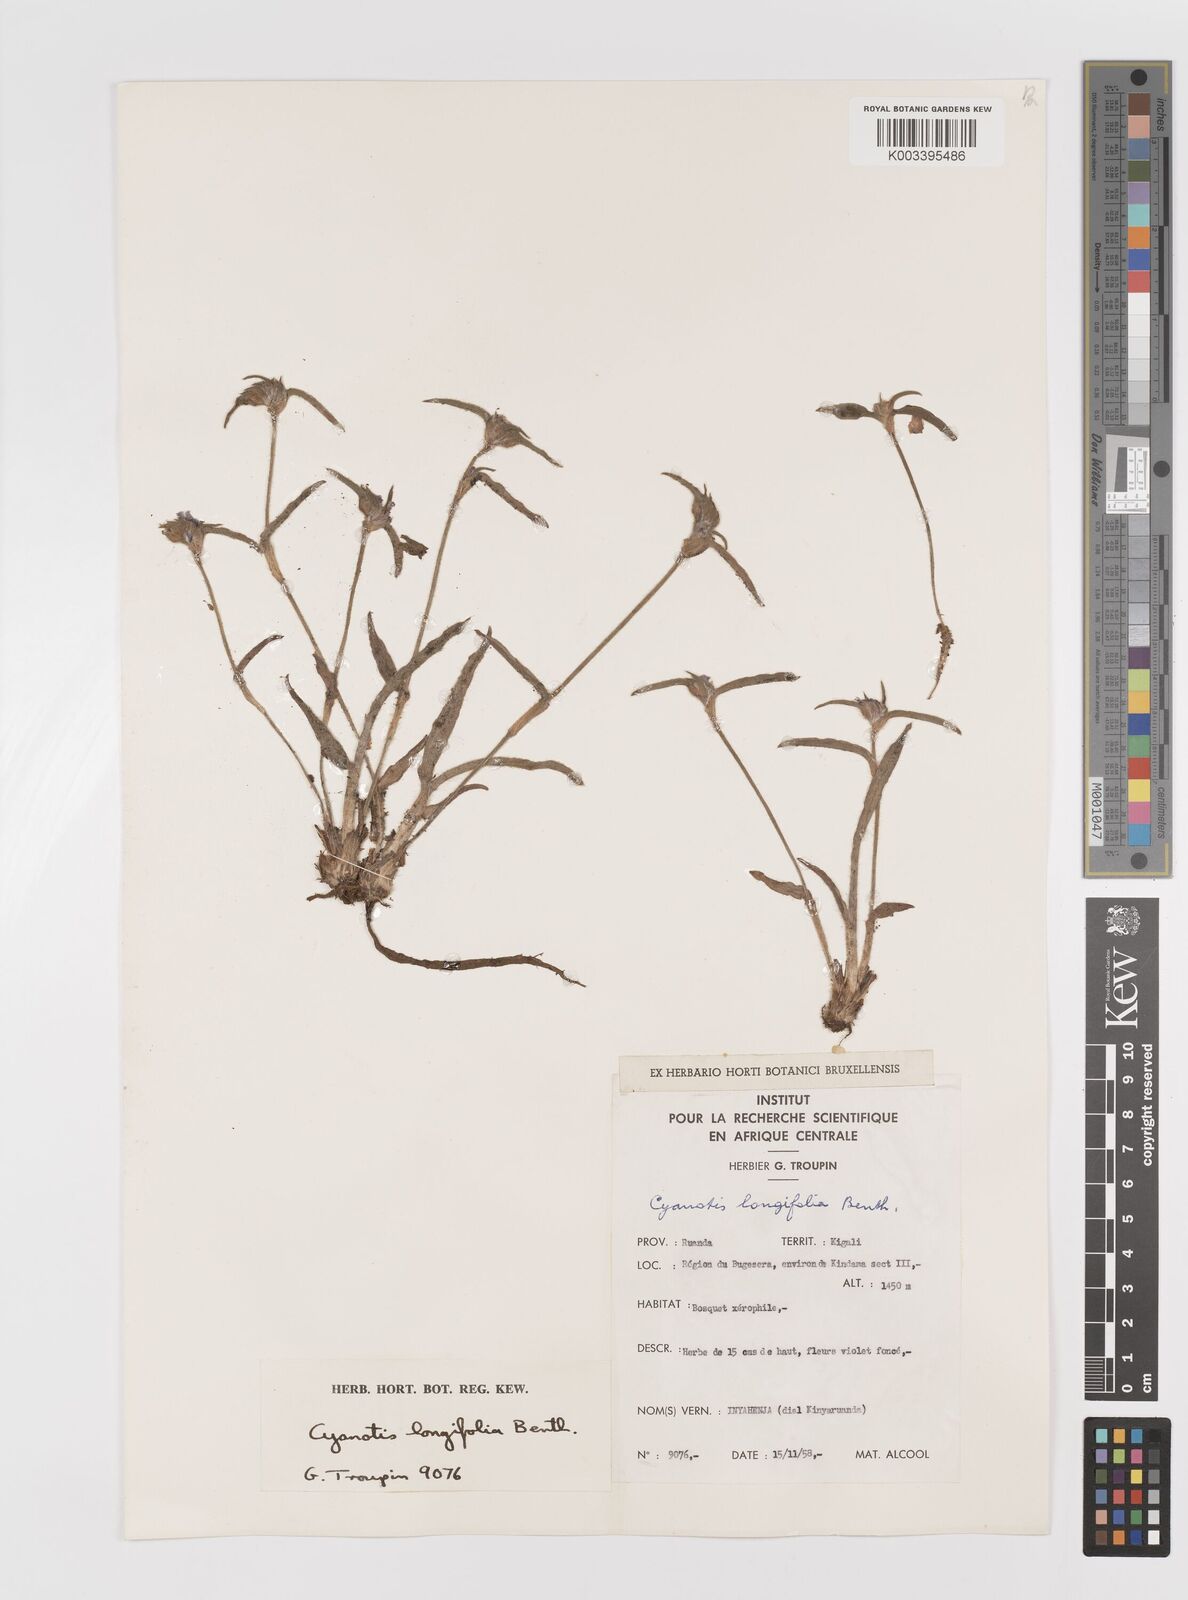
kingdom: Plantae
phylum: Tracheophyta
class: Liliopsida
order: Commelinales
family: Commelinaceae
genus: Cyanotis
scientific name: Cyanotis longifolia
